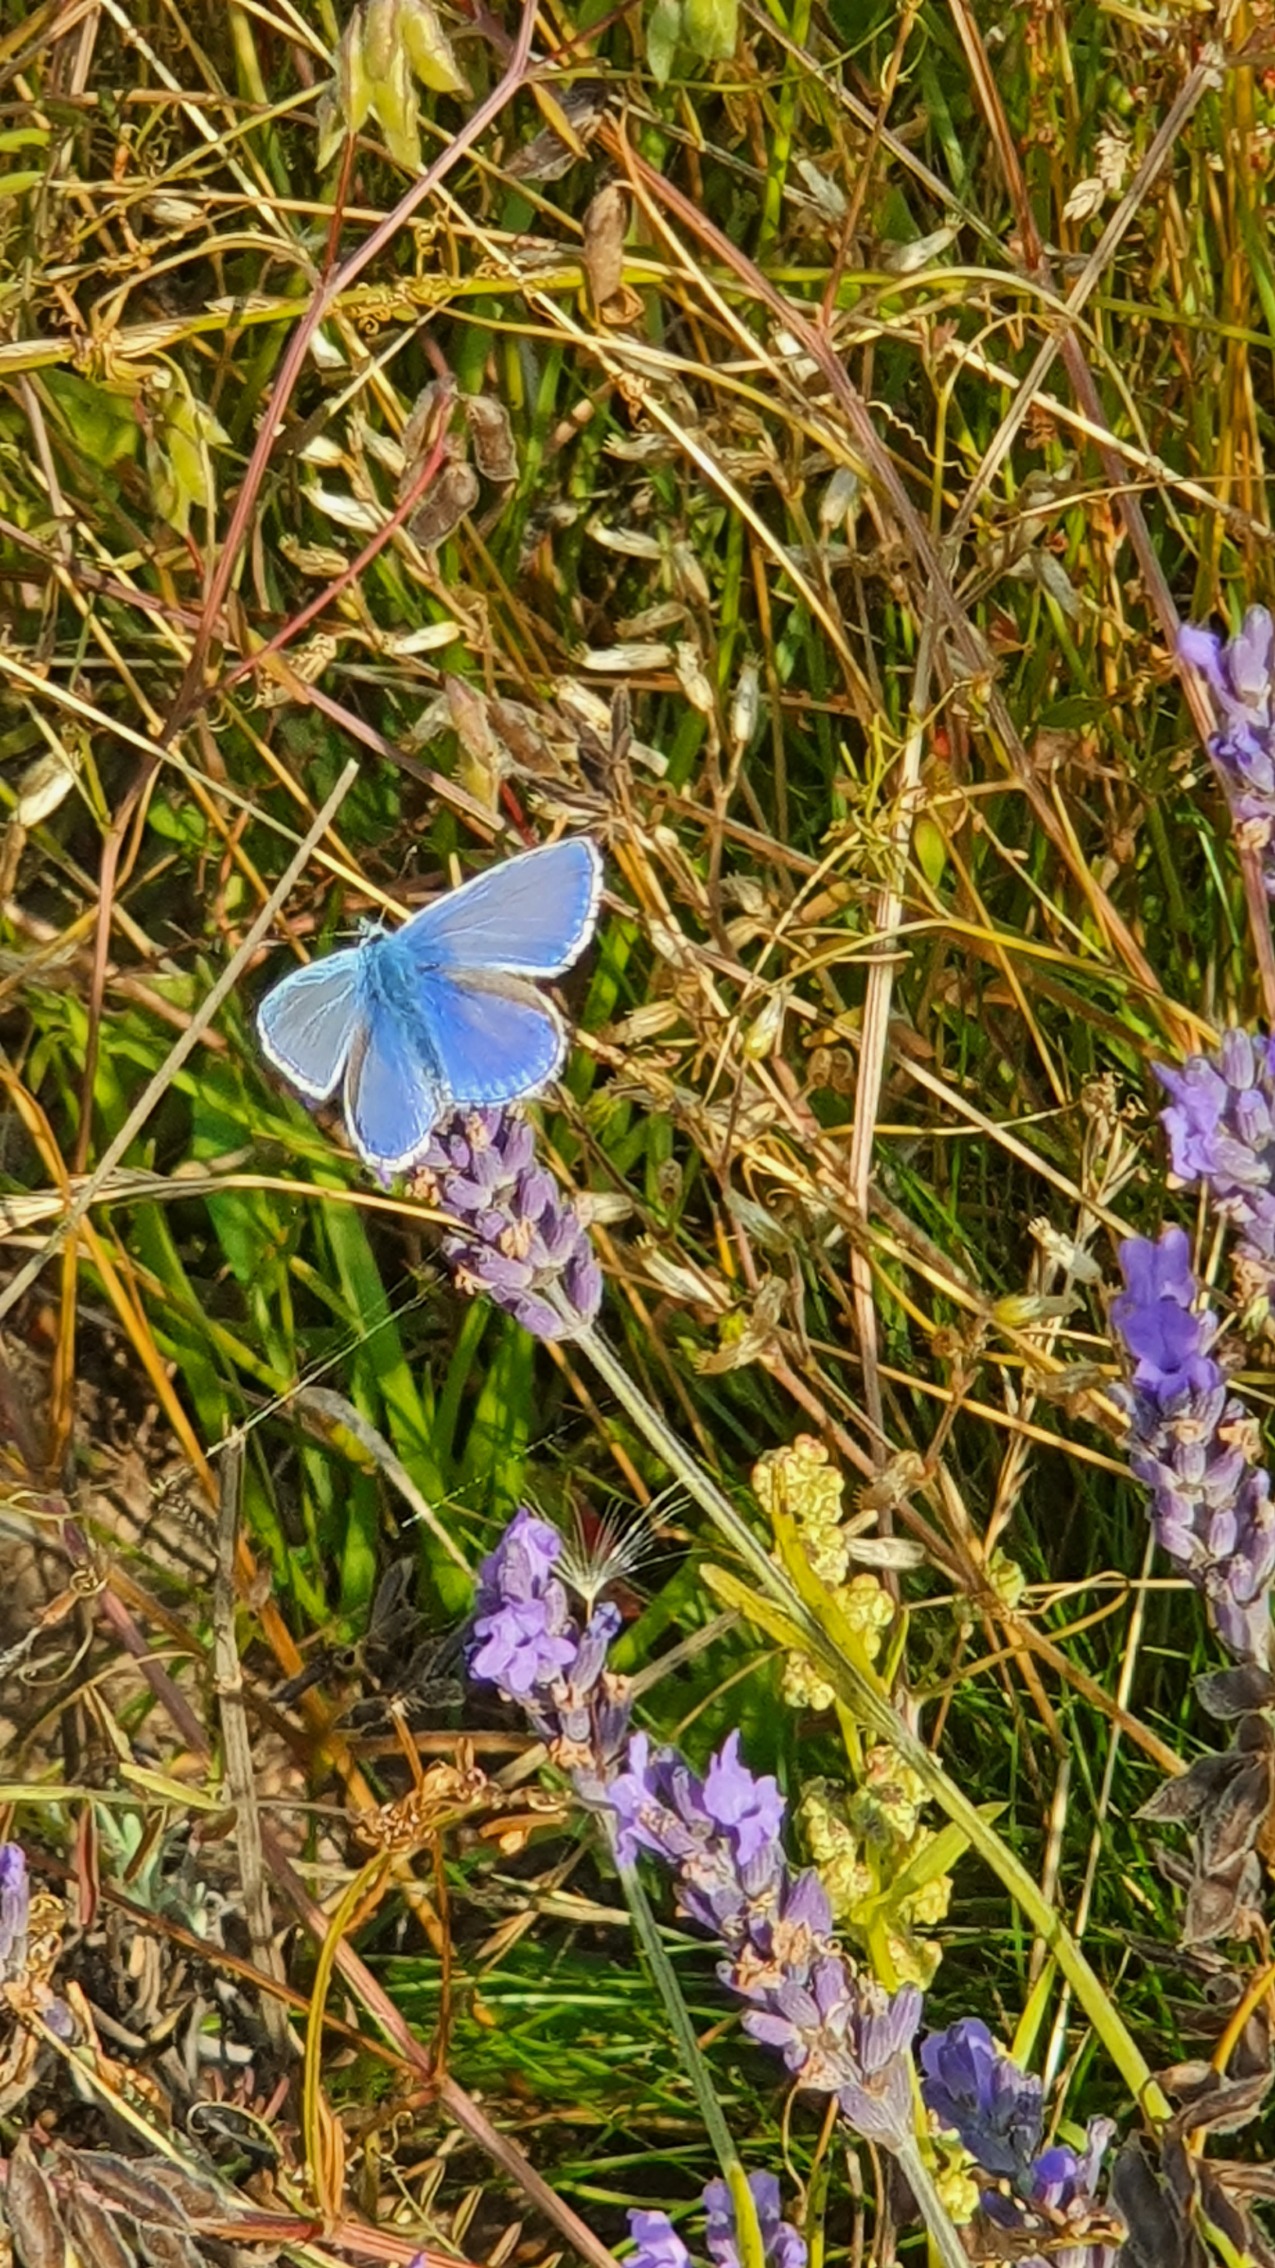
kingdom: Animalia
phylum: Arthropoda
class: Insecta
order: Lepidoptera
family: Lycaenidae
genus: Polyommatus
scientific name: Polyommatus icarus
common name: Almindelig blåfugl
